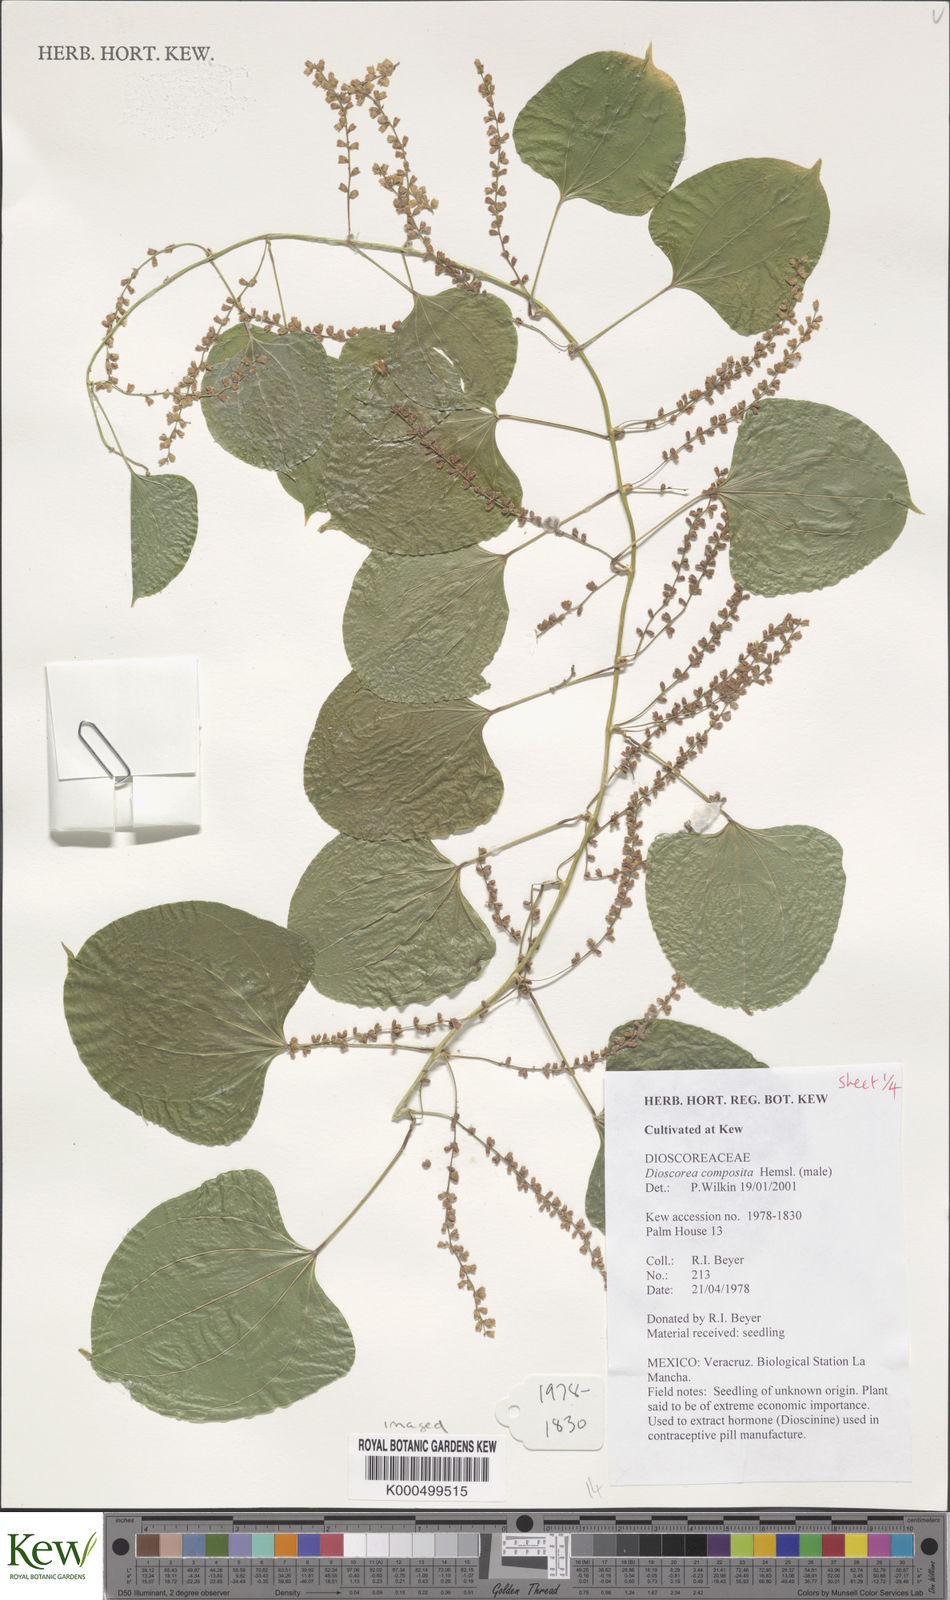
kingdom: Plantae
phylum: Tracheophyta
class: Liliopsida
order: Dioscoreales
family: Dioscoreaceae
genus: Dioscorea
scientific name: Dioscorea composita
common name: Barbasco
